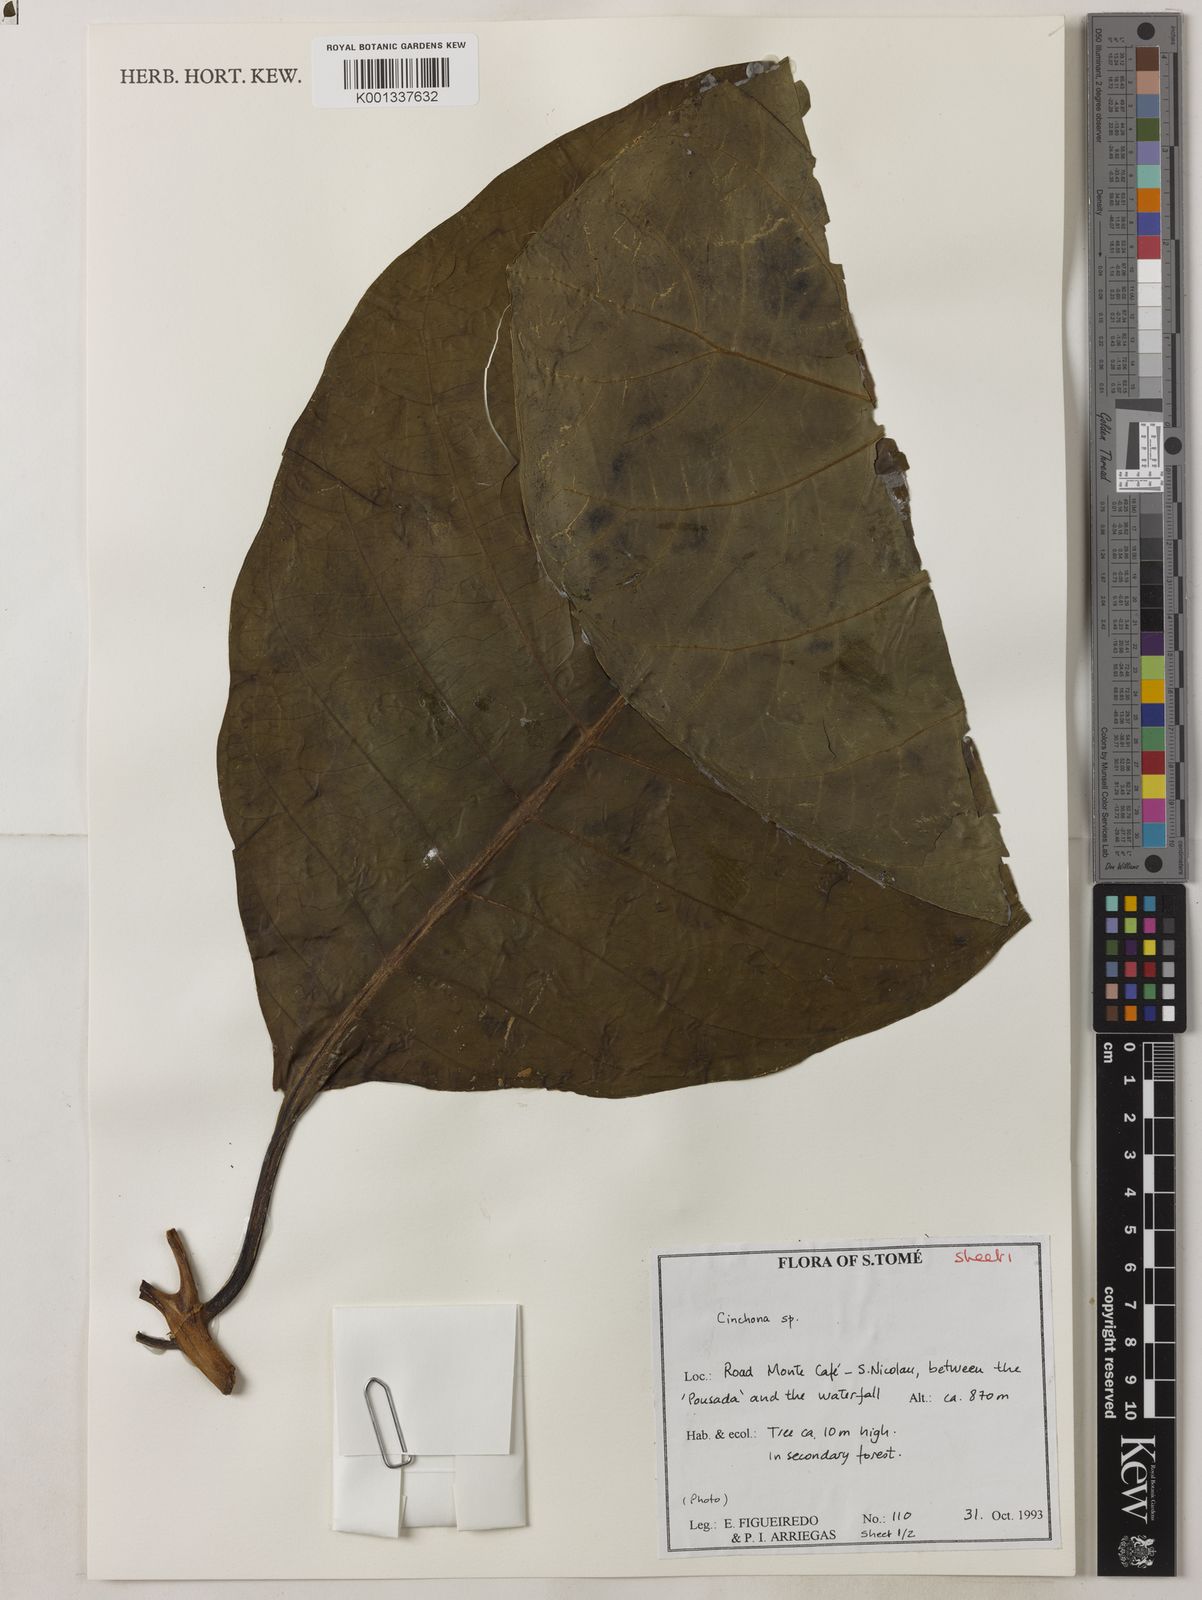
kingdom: Plantae
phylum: Tracheophyta
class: Magnoliopsida
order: Gentianales
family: Rubiaceae
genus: Cinchona
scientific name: Cinchona pubescens
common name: Quinine
